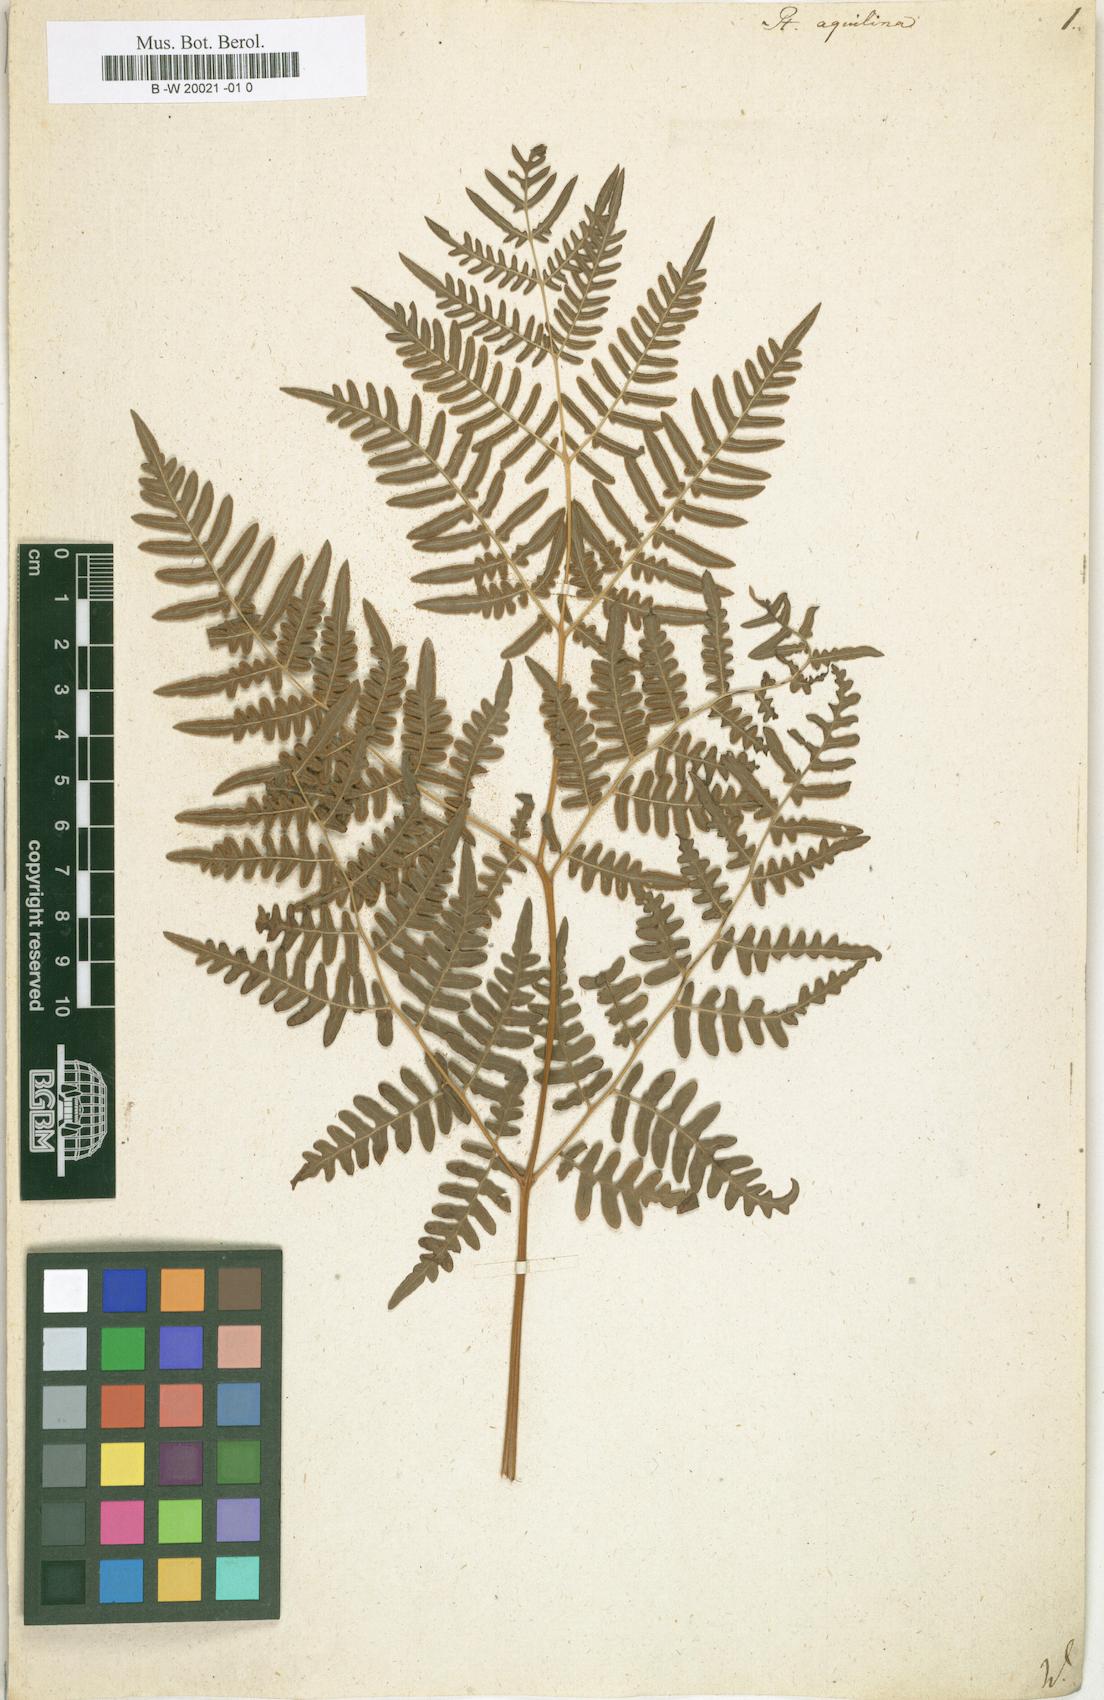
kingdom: Plantae
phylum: Tracheophyta
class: Polypodiopsida
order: Polypodiales
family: Dennstaedtiaceae
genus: Pteridium
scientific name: Pteridium aquilinum
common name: Bracken
